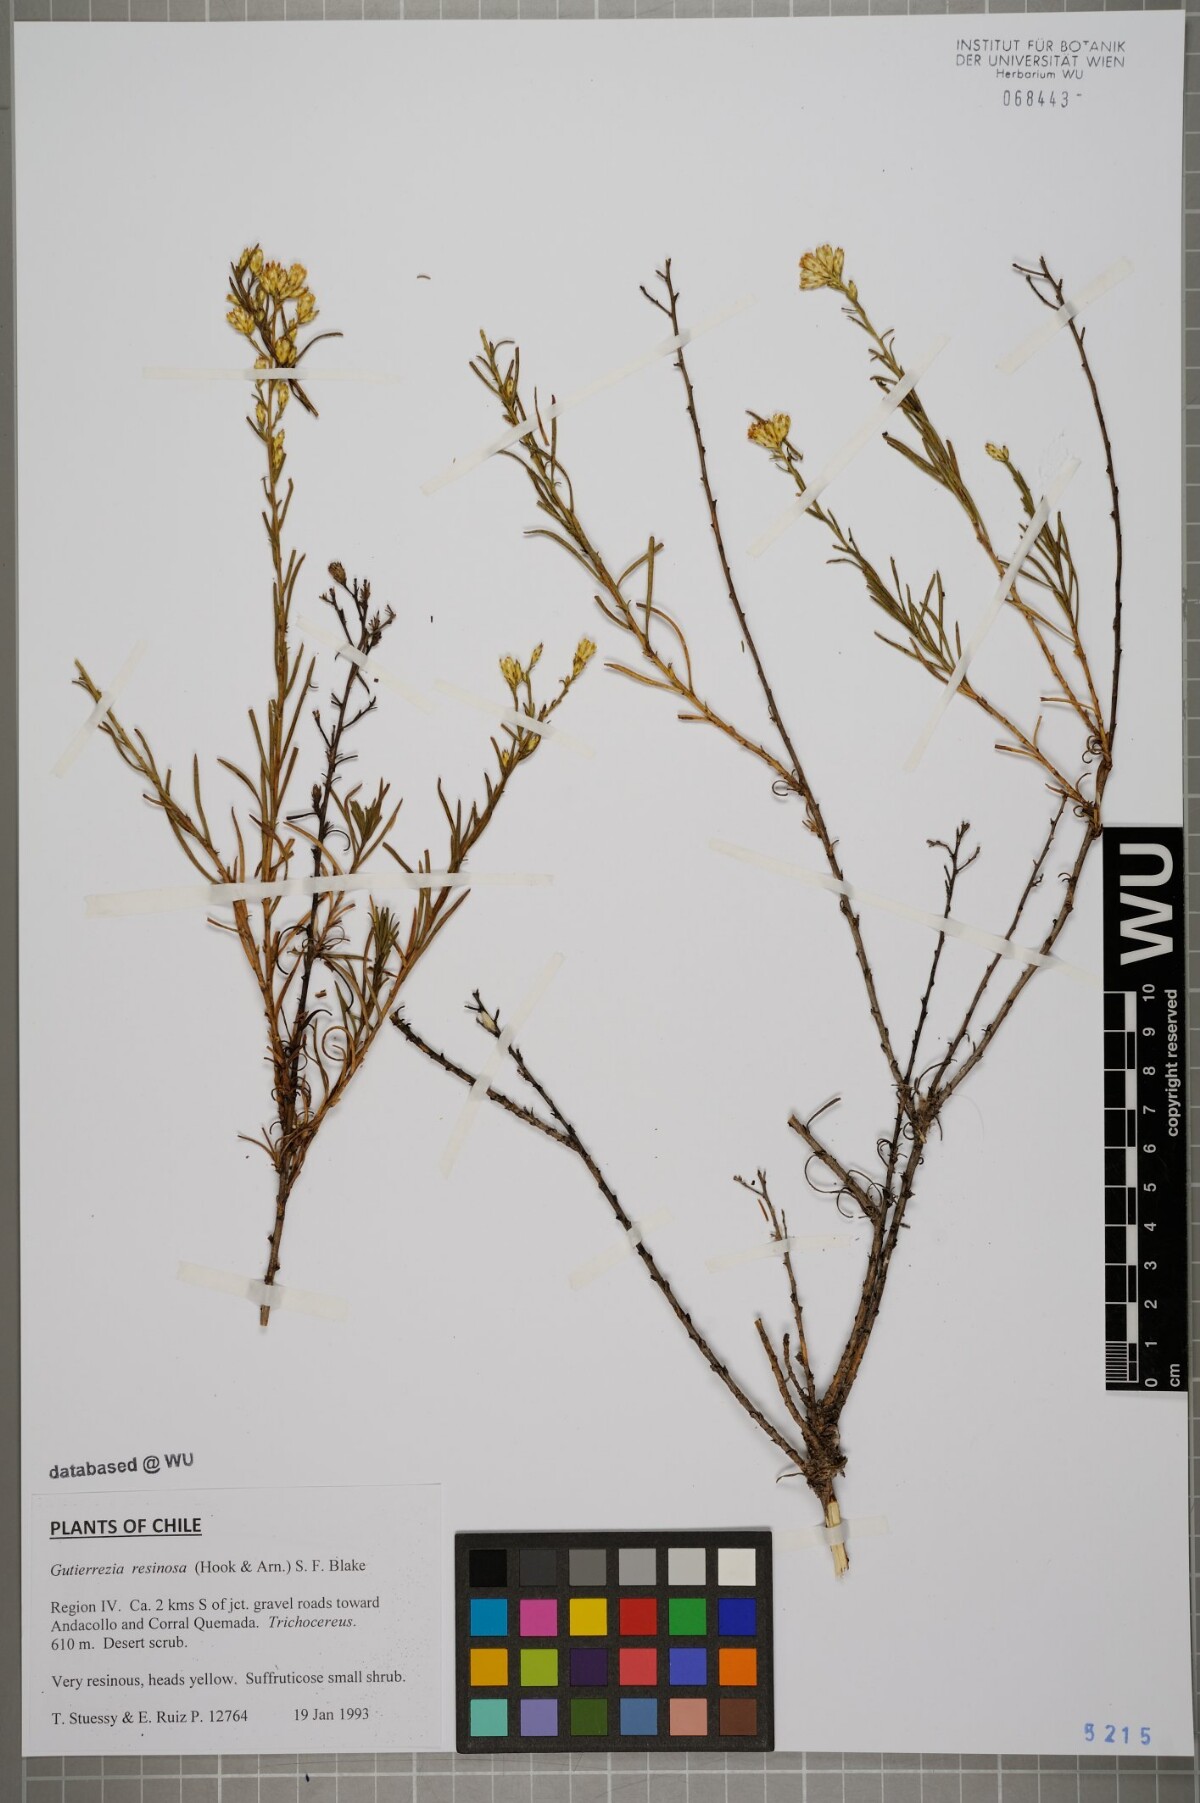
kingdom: Plantae
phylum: Tracheophyta
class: Magnoliopsida
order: Asterales
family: Asteraceae
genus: Gutierrezia
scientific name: Gutierrezia
